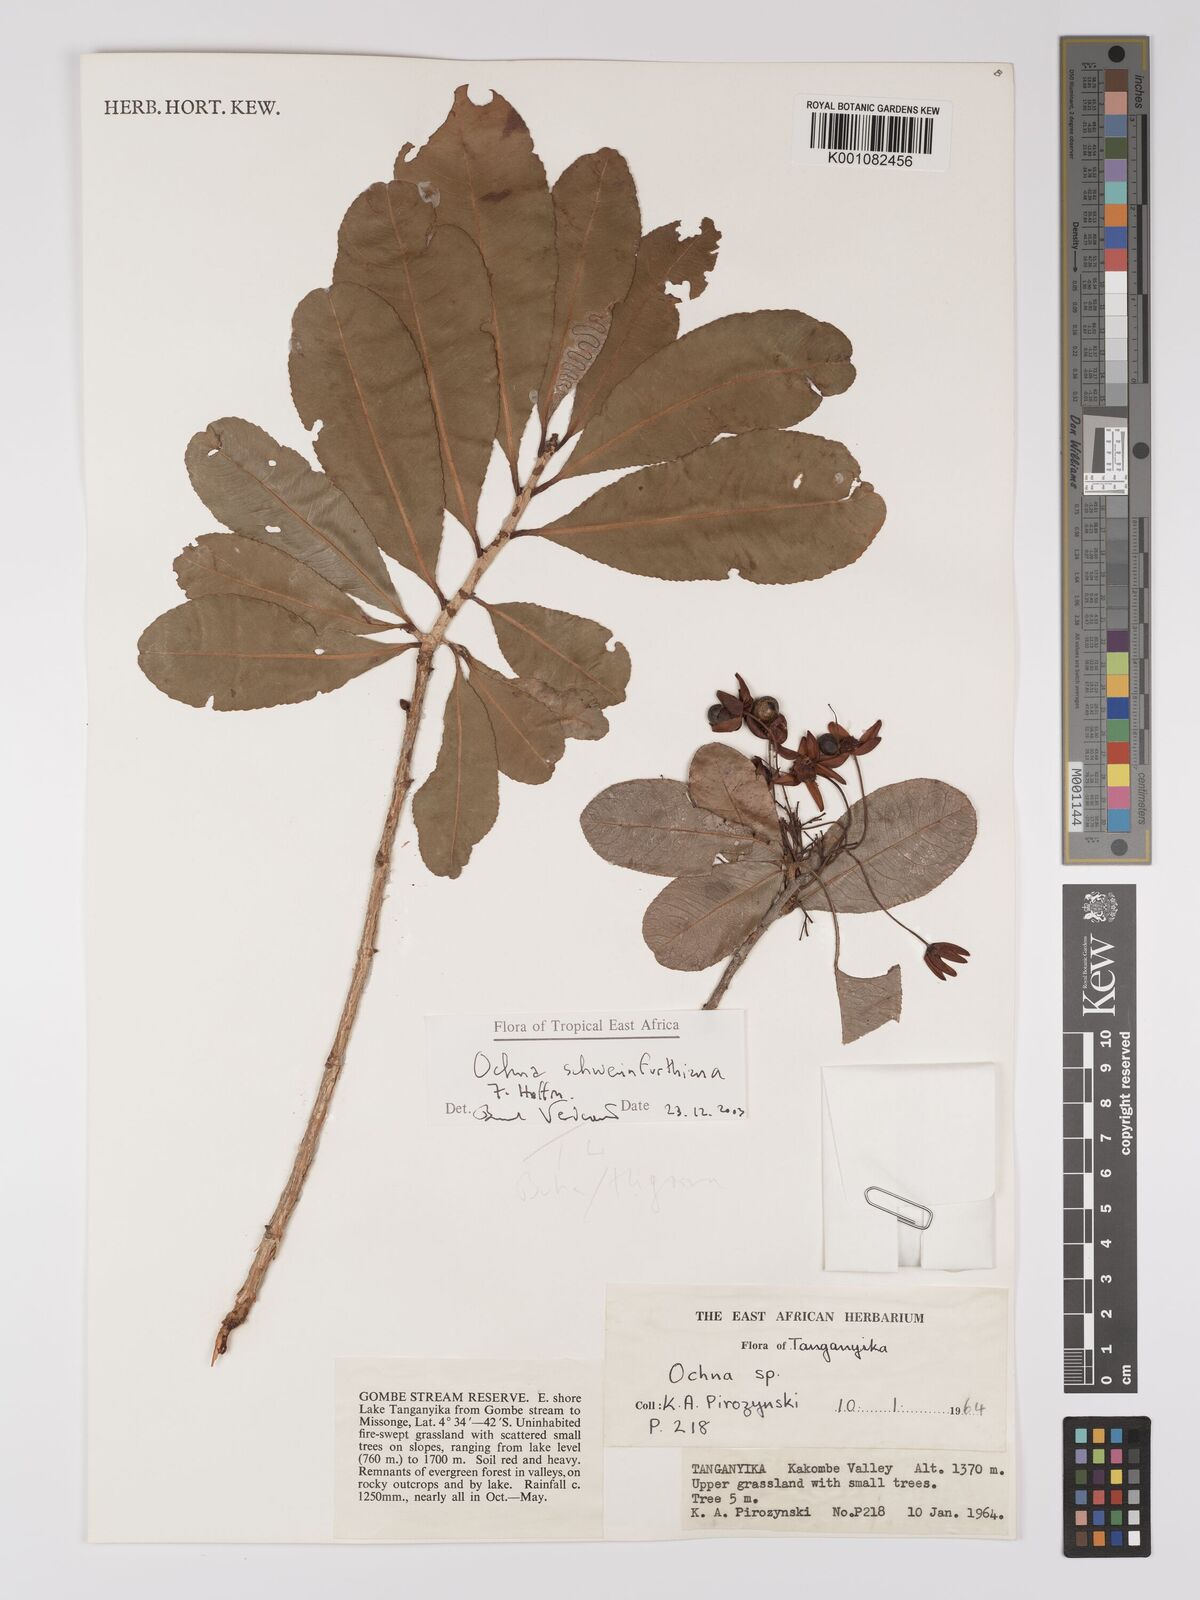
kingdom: Plantae
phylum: Tracheophyta
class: Magnoliopsida
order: Malpighiales
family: Ochnaceae
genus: Ochna
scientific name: Ochna schweinfurthiana
